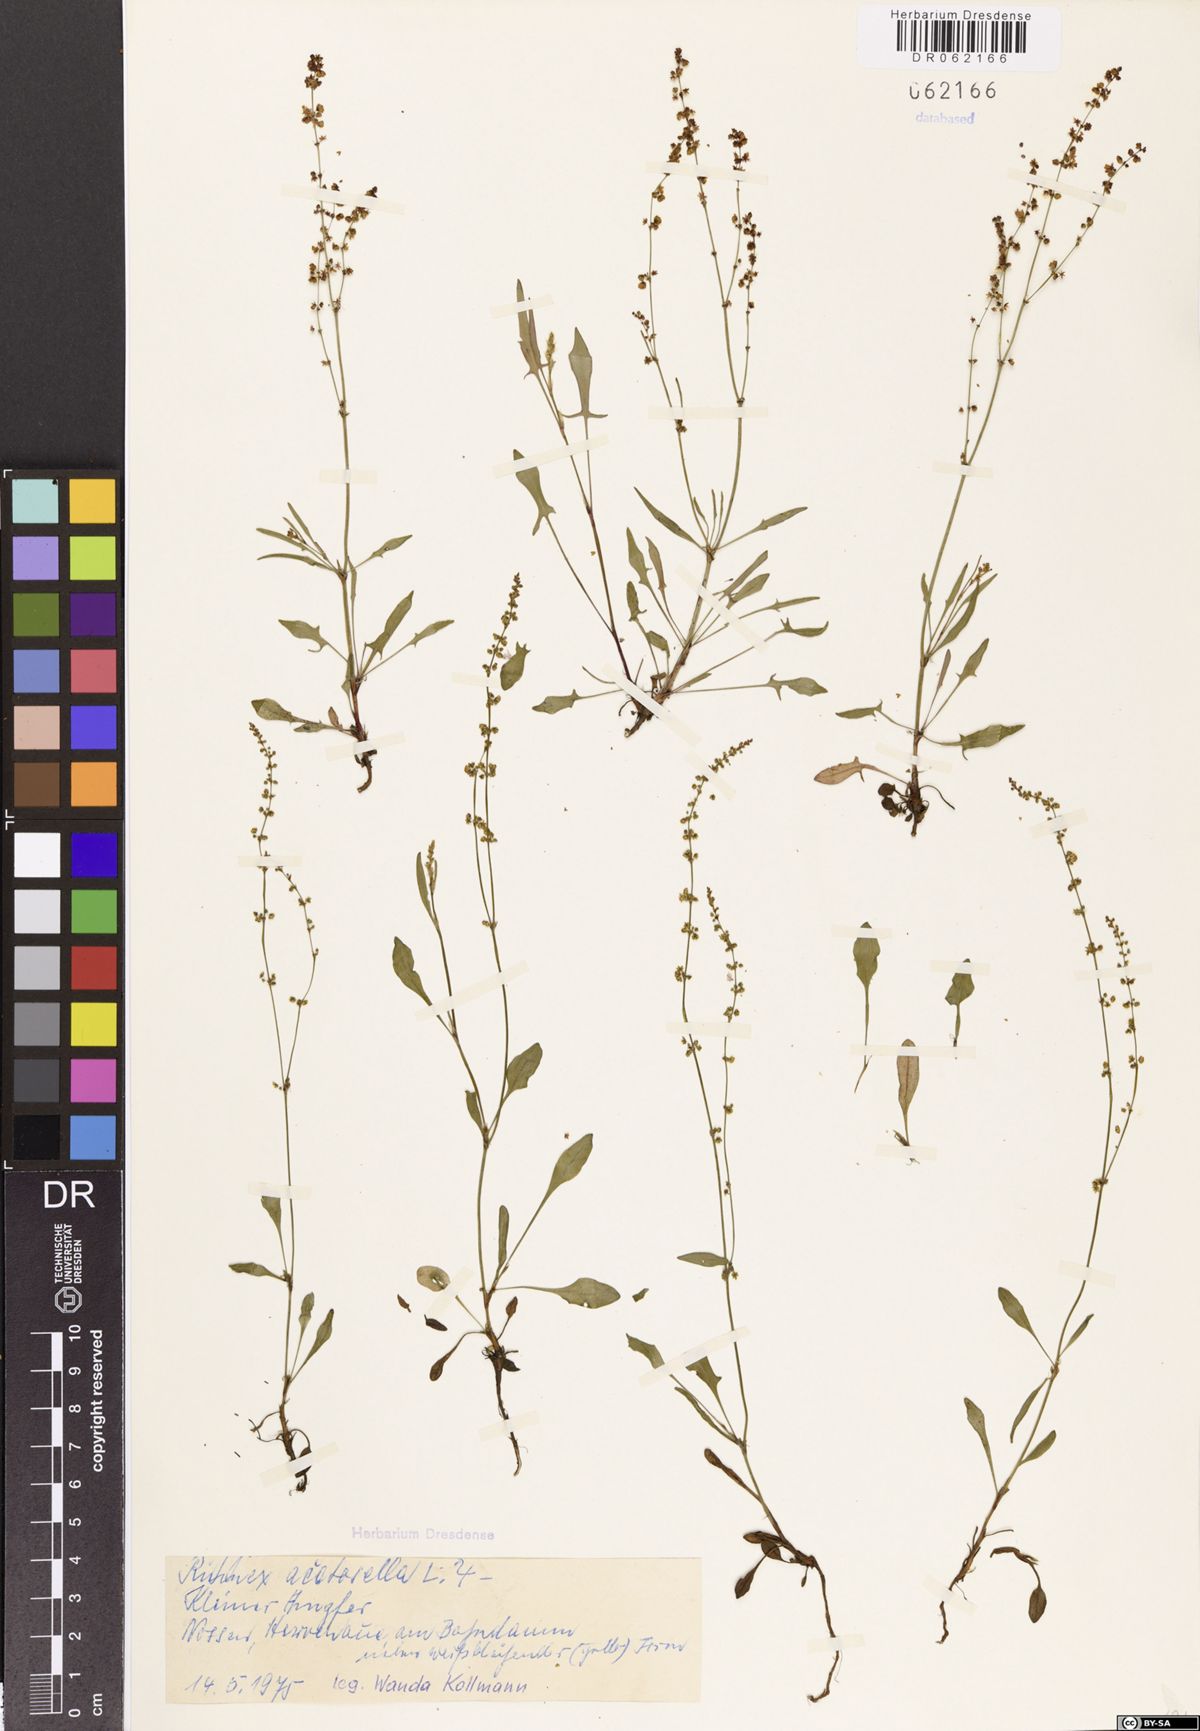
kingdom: Plantae
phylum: Tracheophyta
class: Magnoliopsida
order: Caryophyllales
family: Polygonaceae
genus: Rumex
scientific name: Rumex acetosella
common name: Common sheep sorrel
